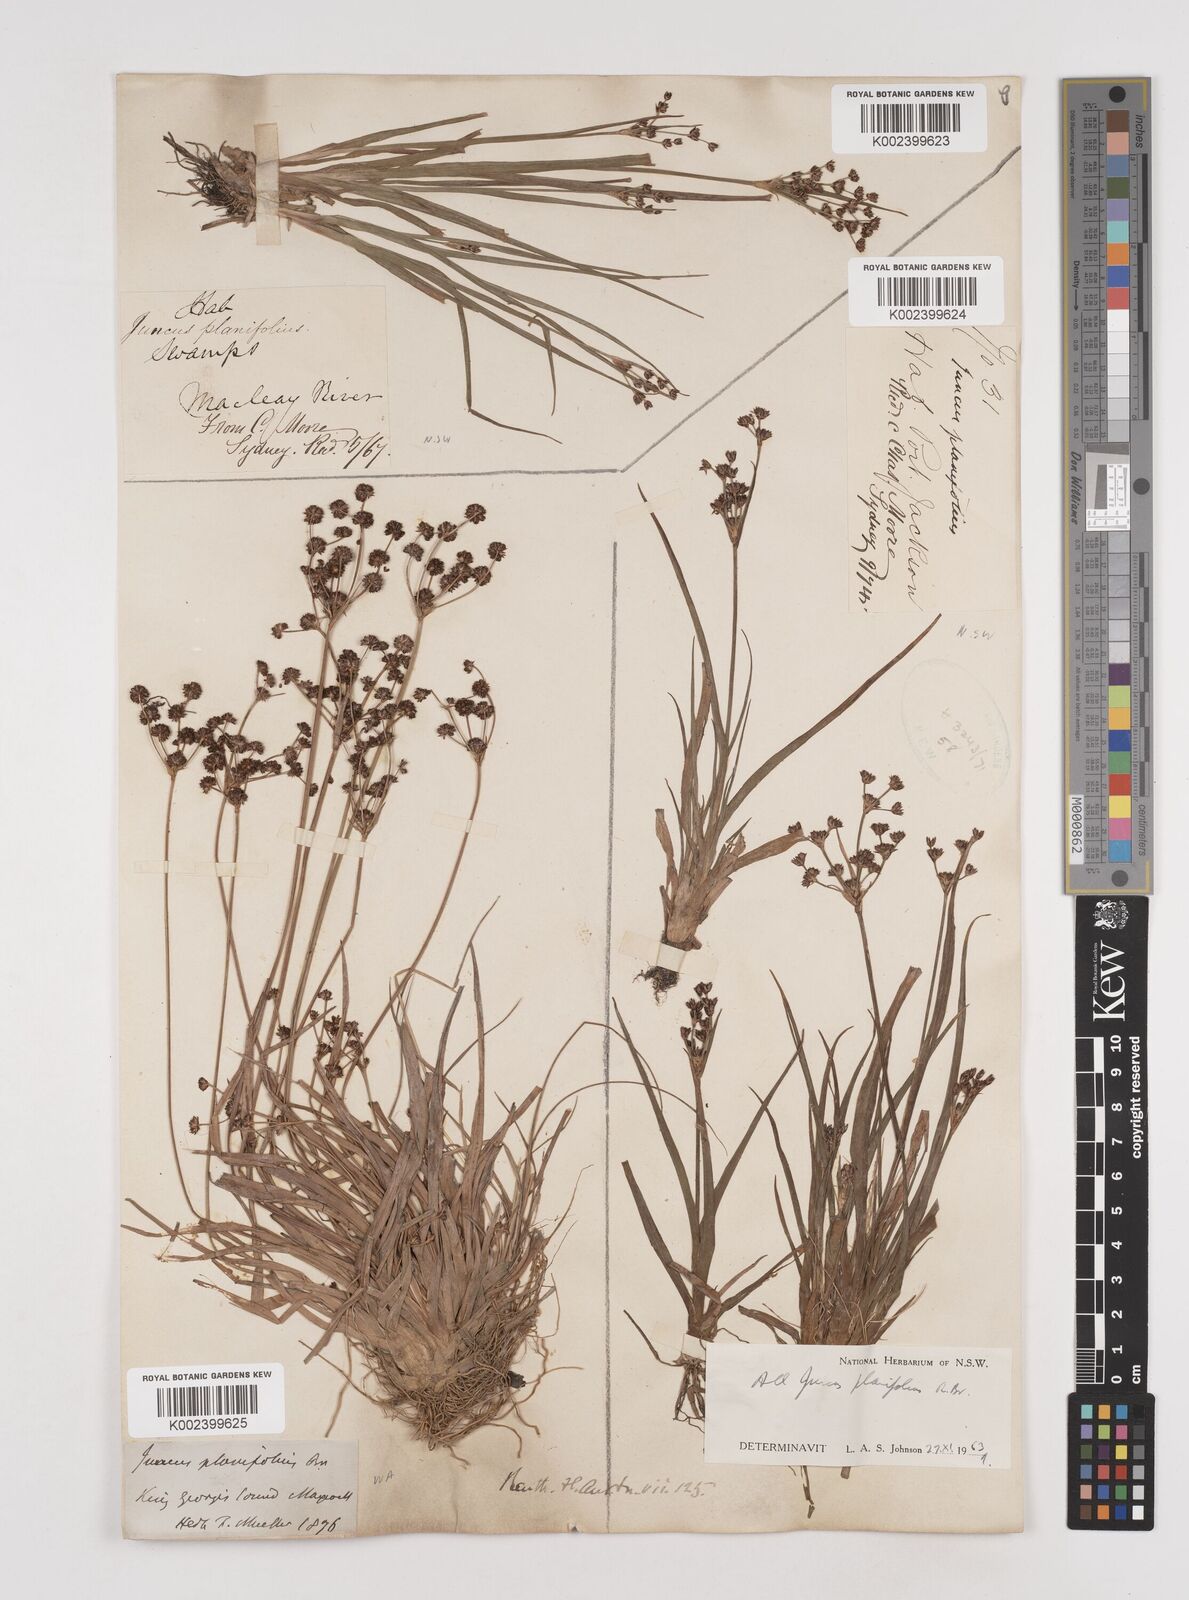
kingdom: Plantae
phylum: Tracheophyta
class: Liliopsida
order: Poales
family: Juncaceae
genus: Juncus
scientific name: Juncus planifolius
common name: Broadleaf rush
